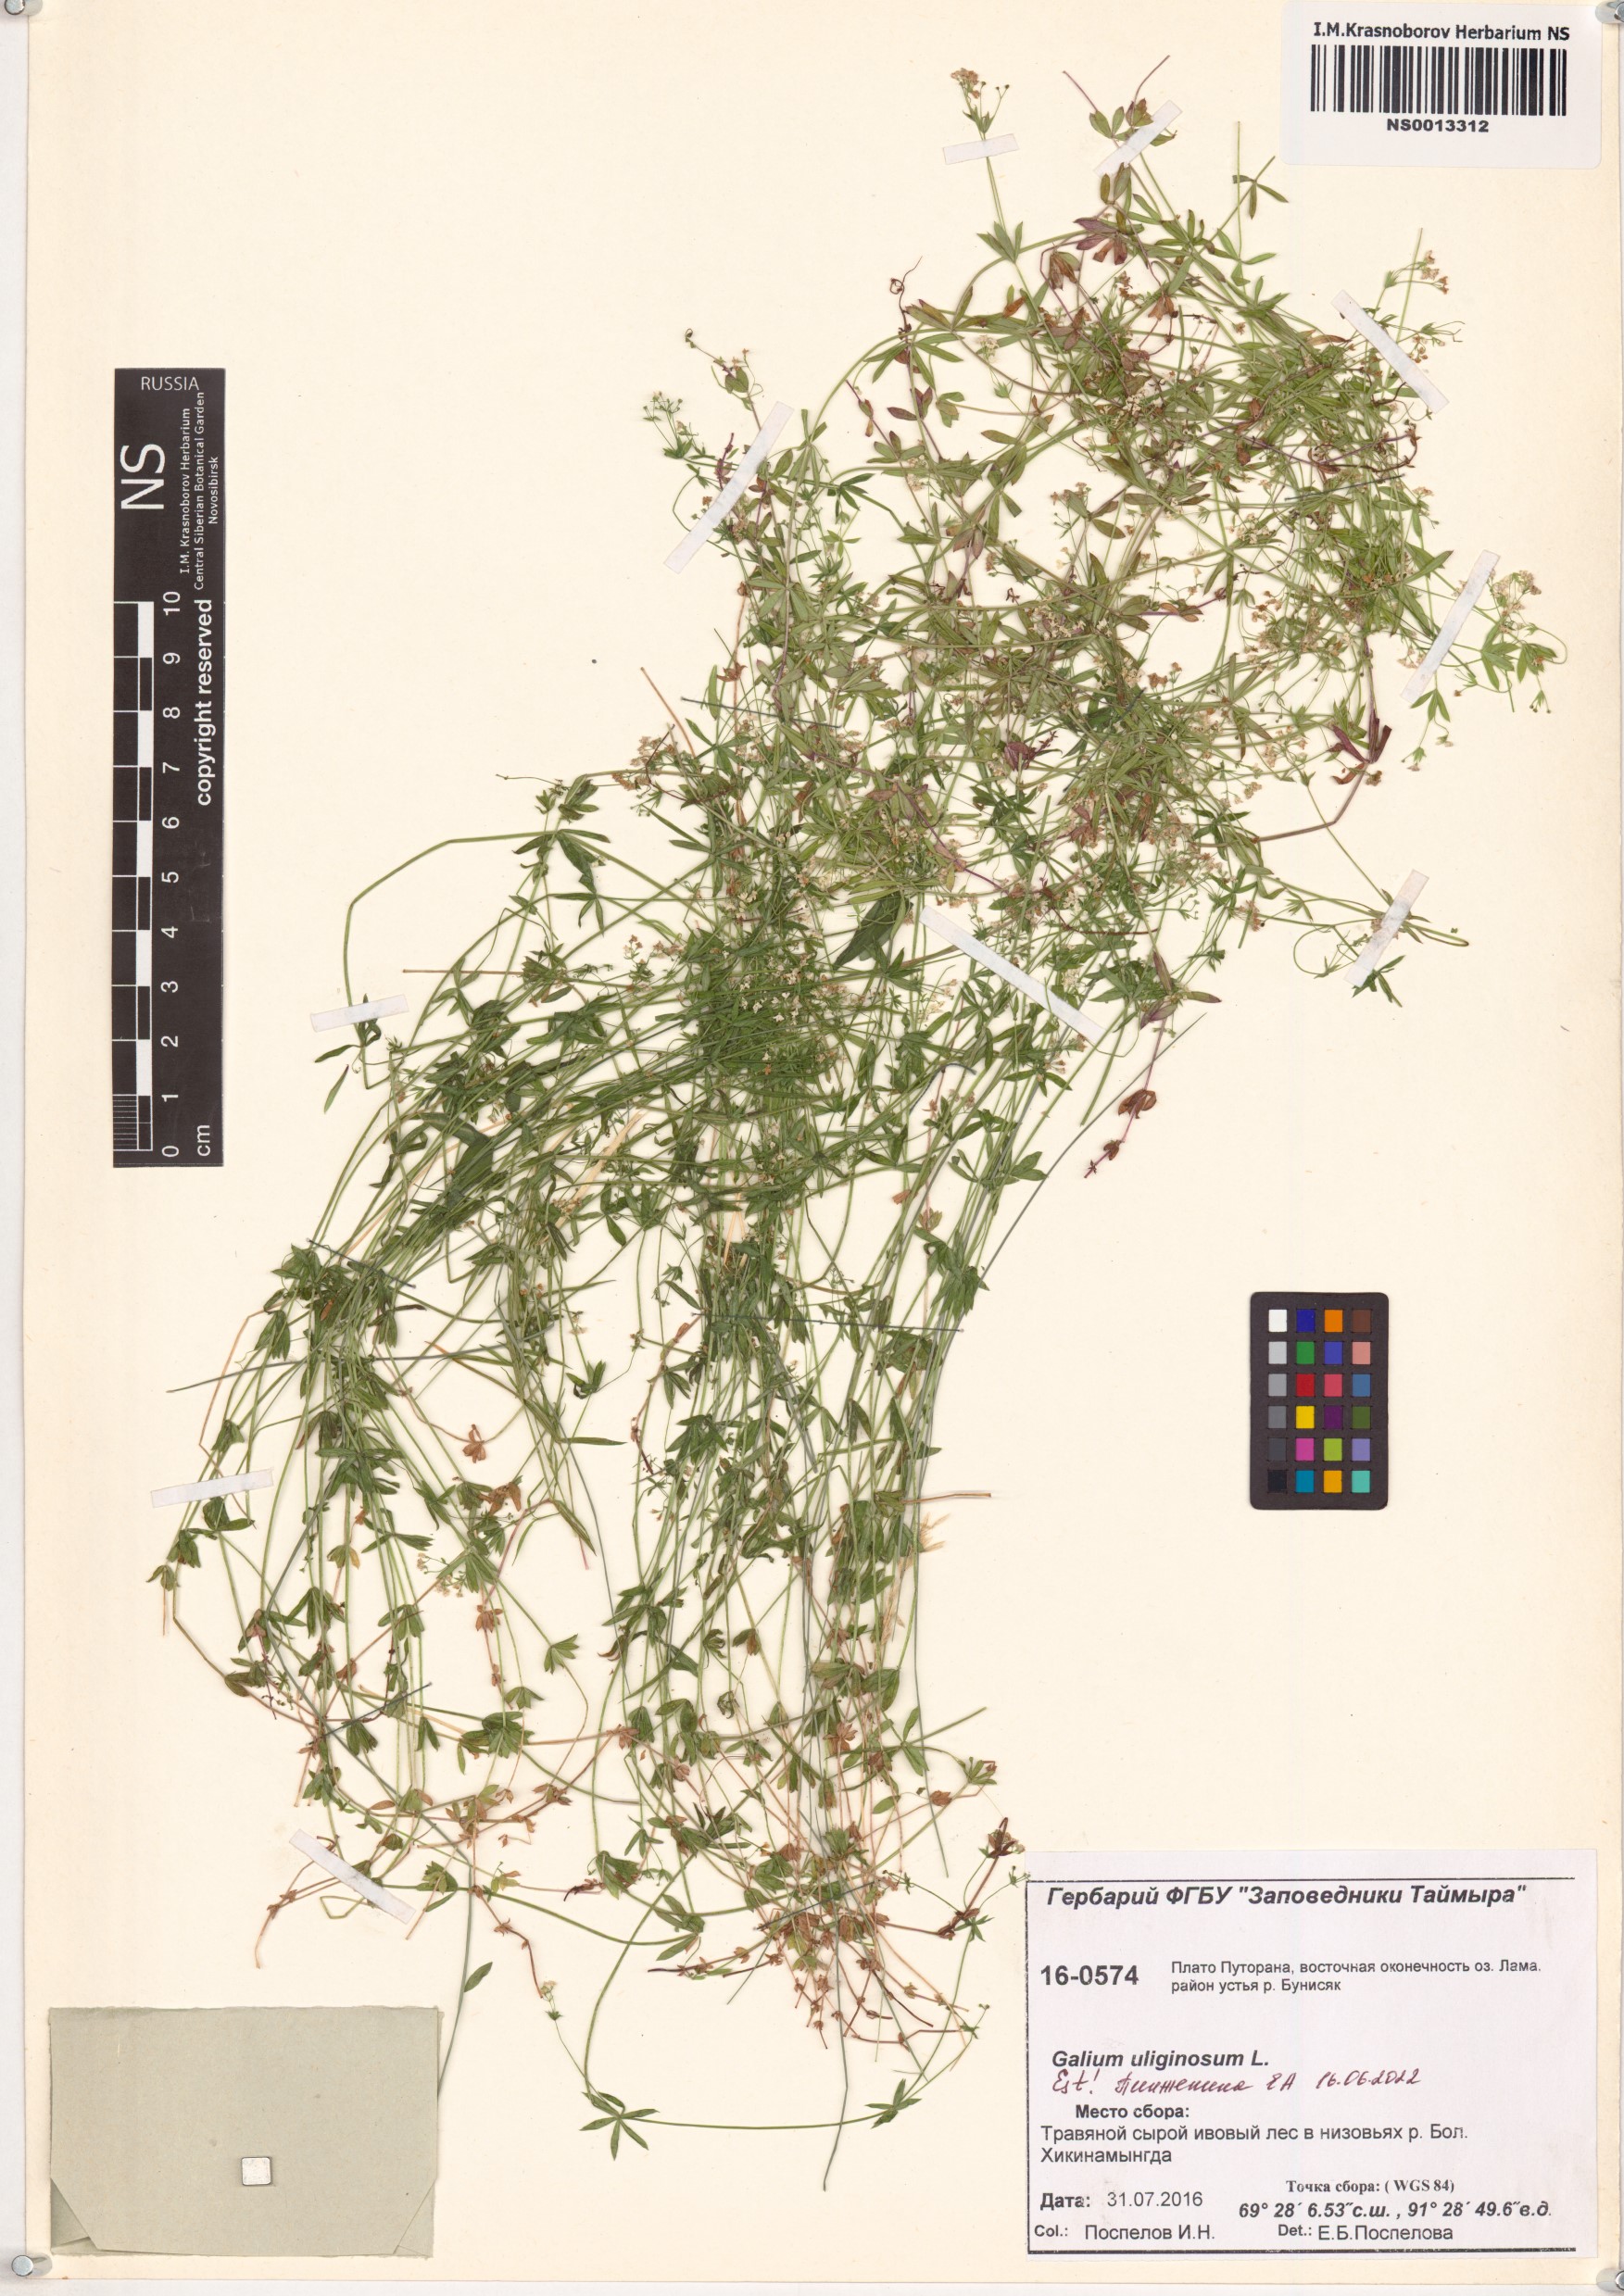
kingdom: Plantae
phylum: Tracheophyta
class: Magnoliopsida
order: Gentianales
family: Rubiaceae
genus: Galium
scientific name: Galium uliginosum
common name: Fen bedstraw
